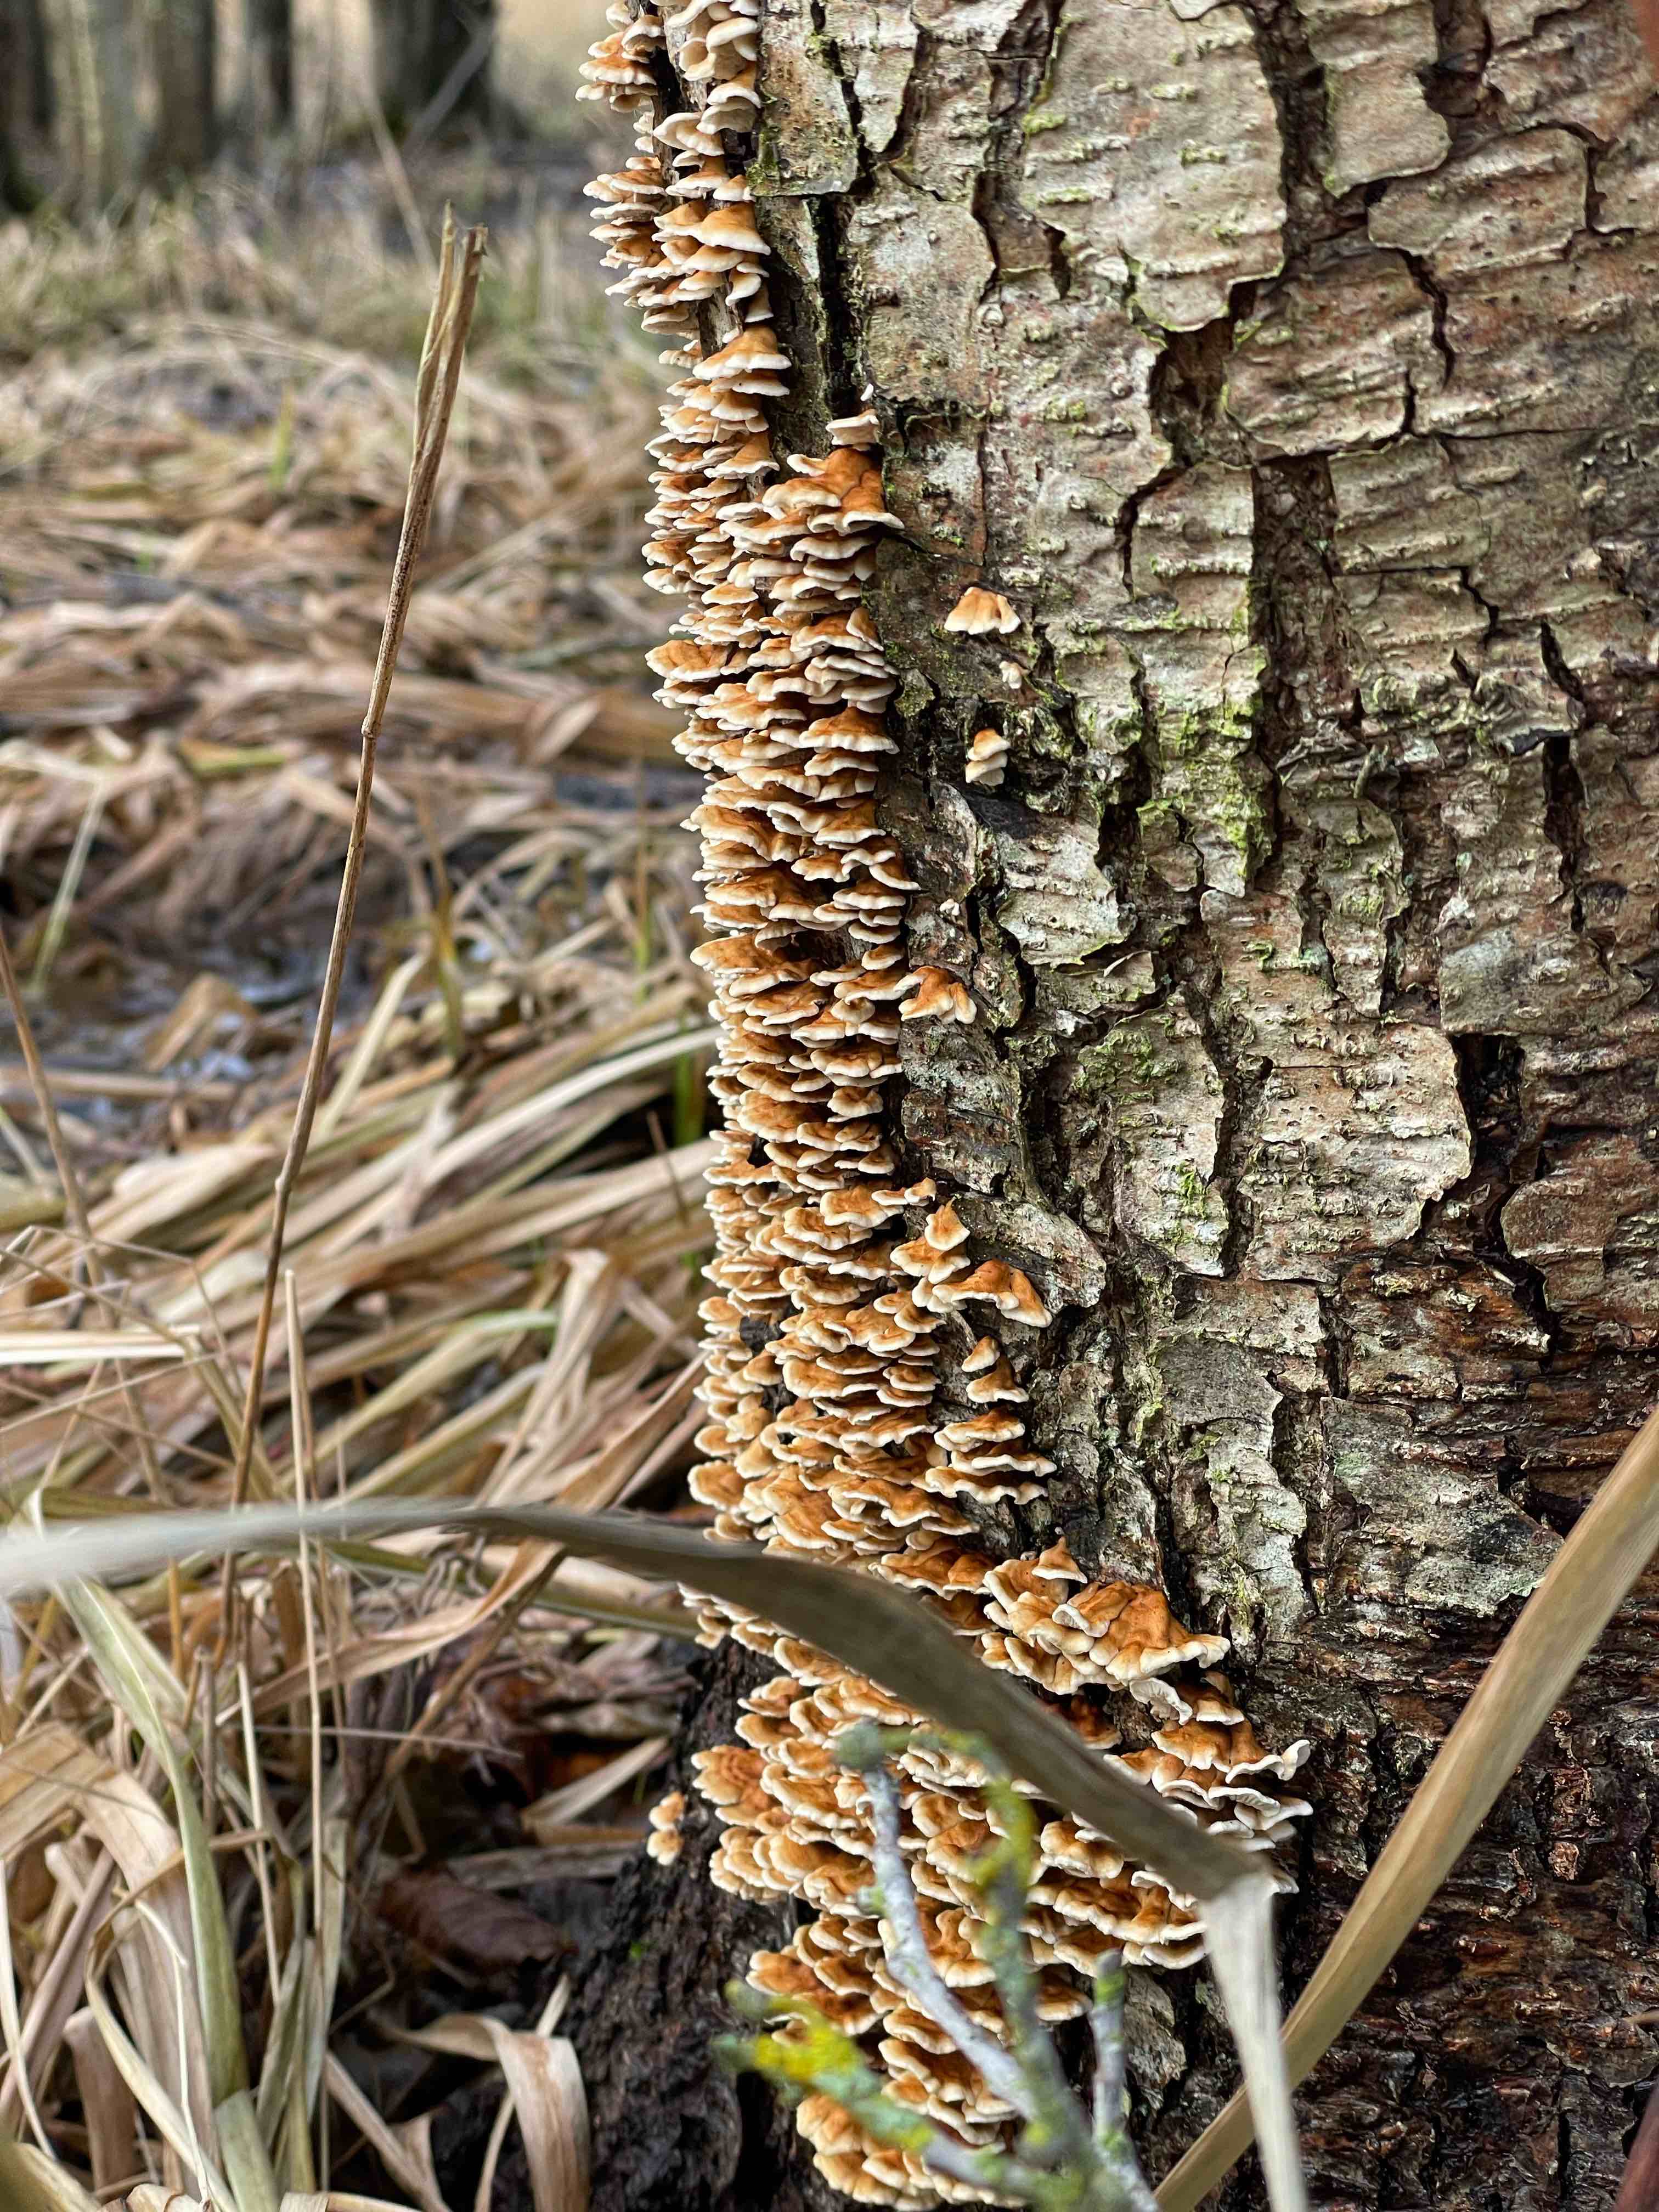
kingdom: Fungi
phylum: Basidiomycota
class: Agaricomycetes
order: Amylocorticiales
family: Amylocorticiaceae
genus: Plicaturopsis
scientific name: Plicaturopsis crispa
